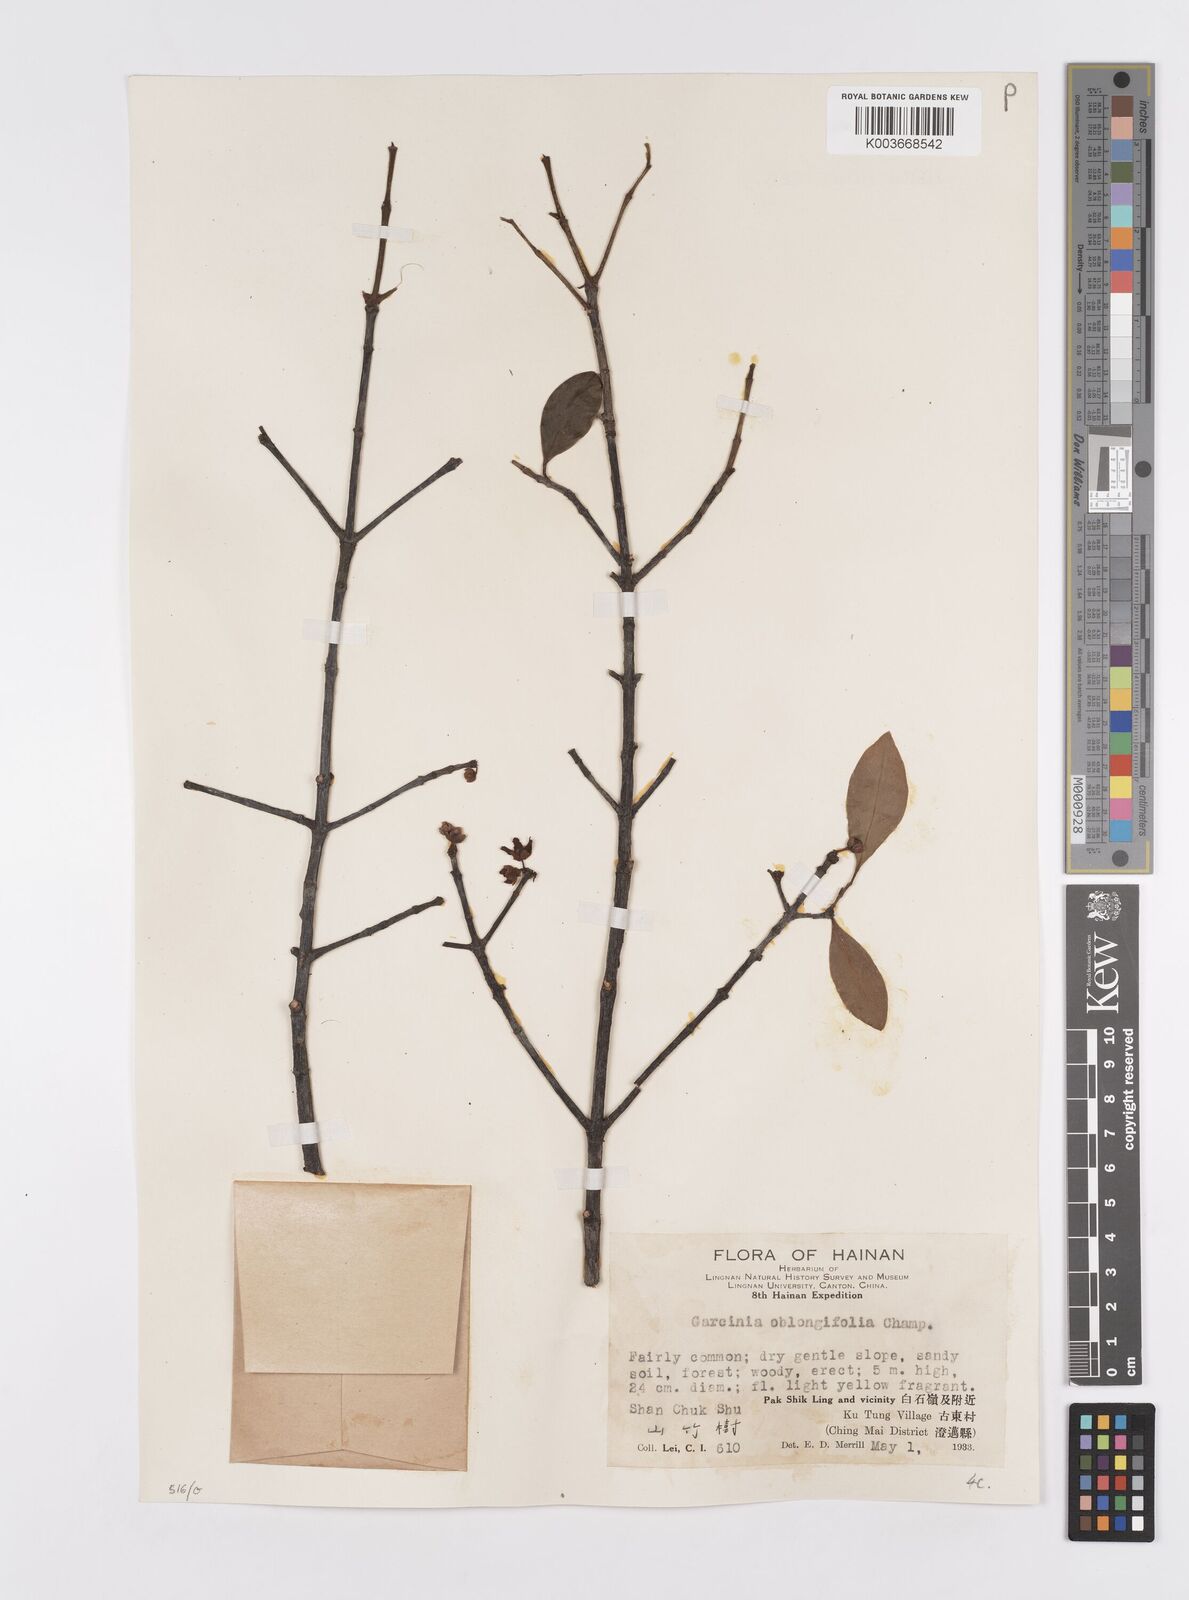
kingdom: Plantae
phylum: Tracheophyta
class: Magnoliopsida
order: Malpighiales
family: Clusiaceae
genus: Garcinia
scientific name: Garcinia oblongifolia
